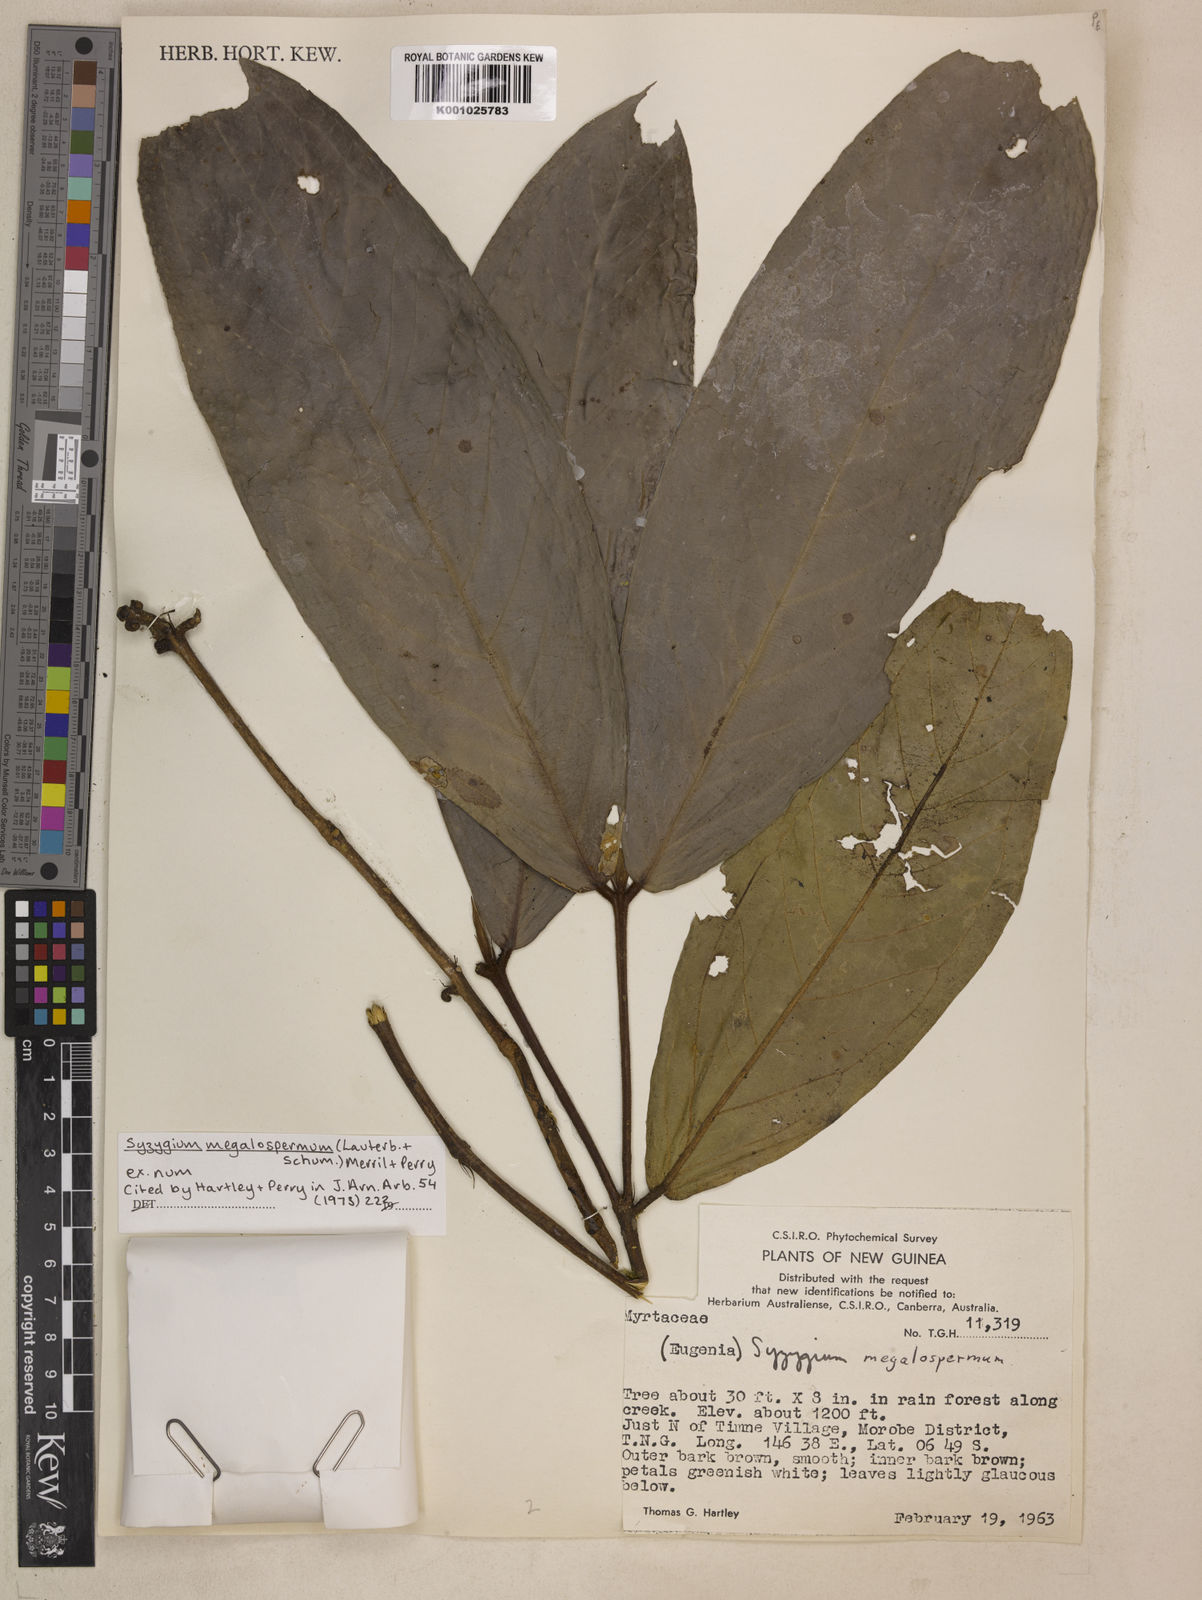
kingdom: Plantae
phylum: Tracheophyta
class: Magnoliopsida
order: Myrtales
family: Myrtaceae
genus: Syzygium
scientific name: Syzygium megalospermum
